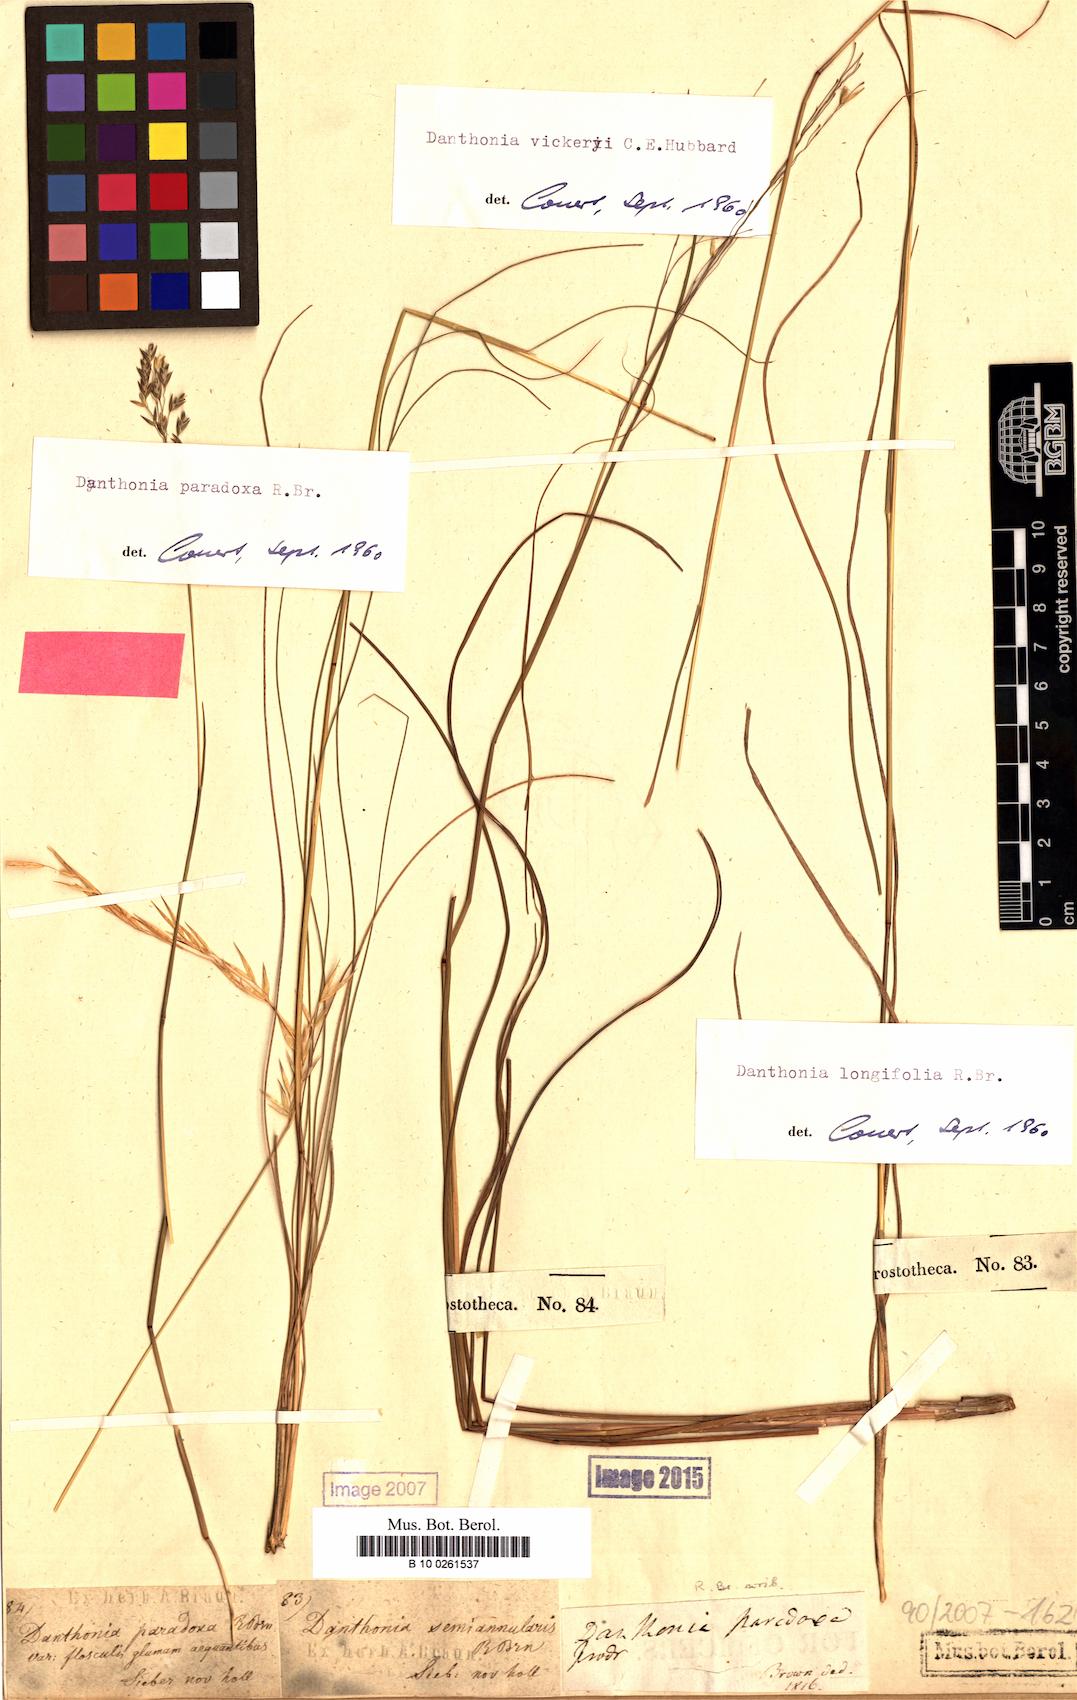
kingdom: Plantae
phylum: Tracheophyta
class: Liliopsida
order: Poales
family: Poaceae
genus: Plinthanthesis
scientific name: Plinthanthesis paradoxa
